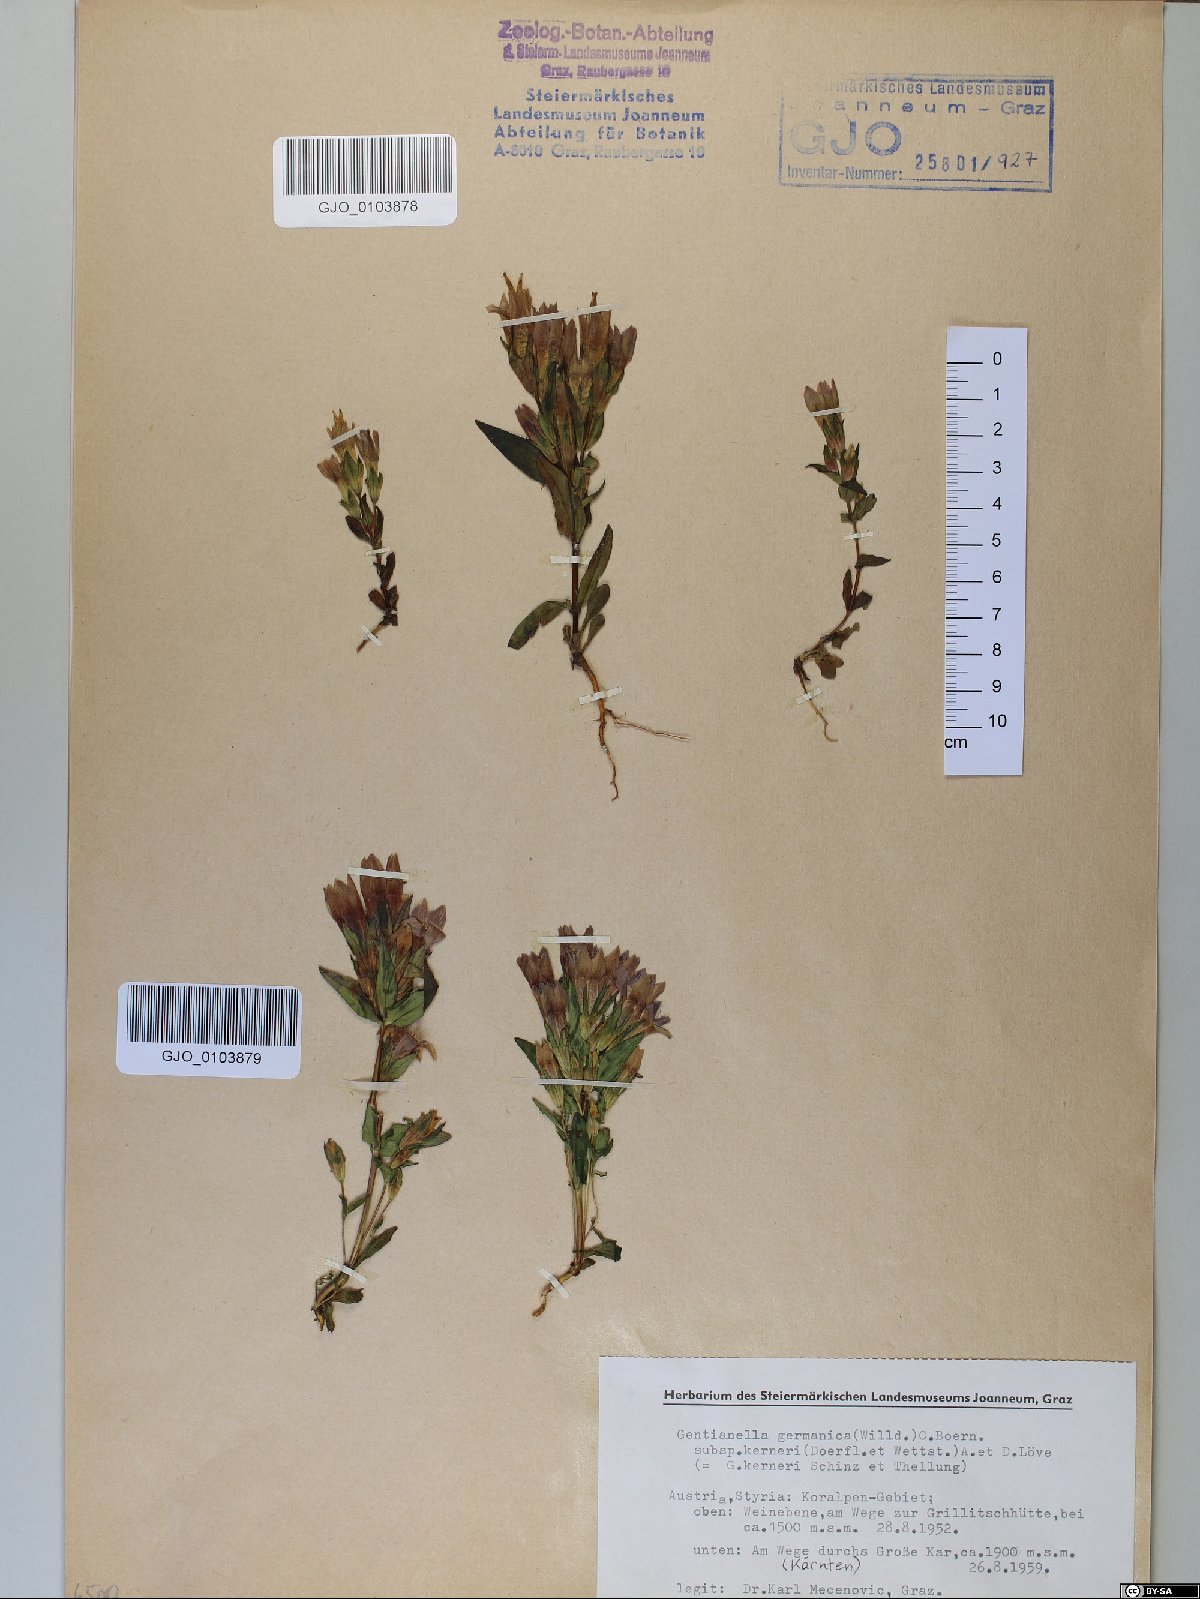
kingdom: Plantae
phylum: Tracheophyta
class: Magnoliopsida
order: Gentianales
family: Gentianaceae
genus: Gentianella
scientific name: Gentianella rhaetica
